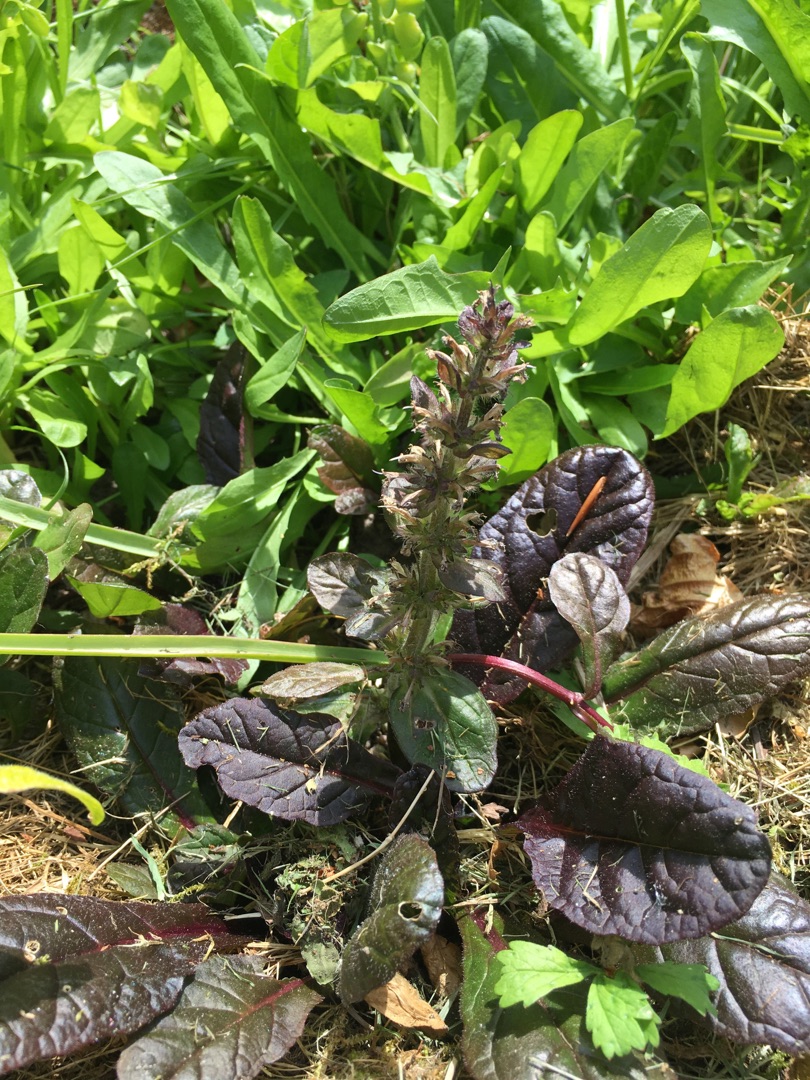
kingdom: Plantae
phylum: Tracheophyta
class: Magnoliopsida
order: Lamiales
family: Lamiaceae
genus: Ajuga
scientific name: Ajuga reptans
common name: Krybende læbeløs
